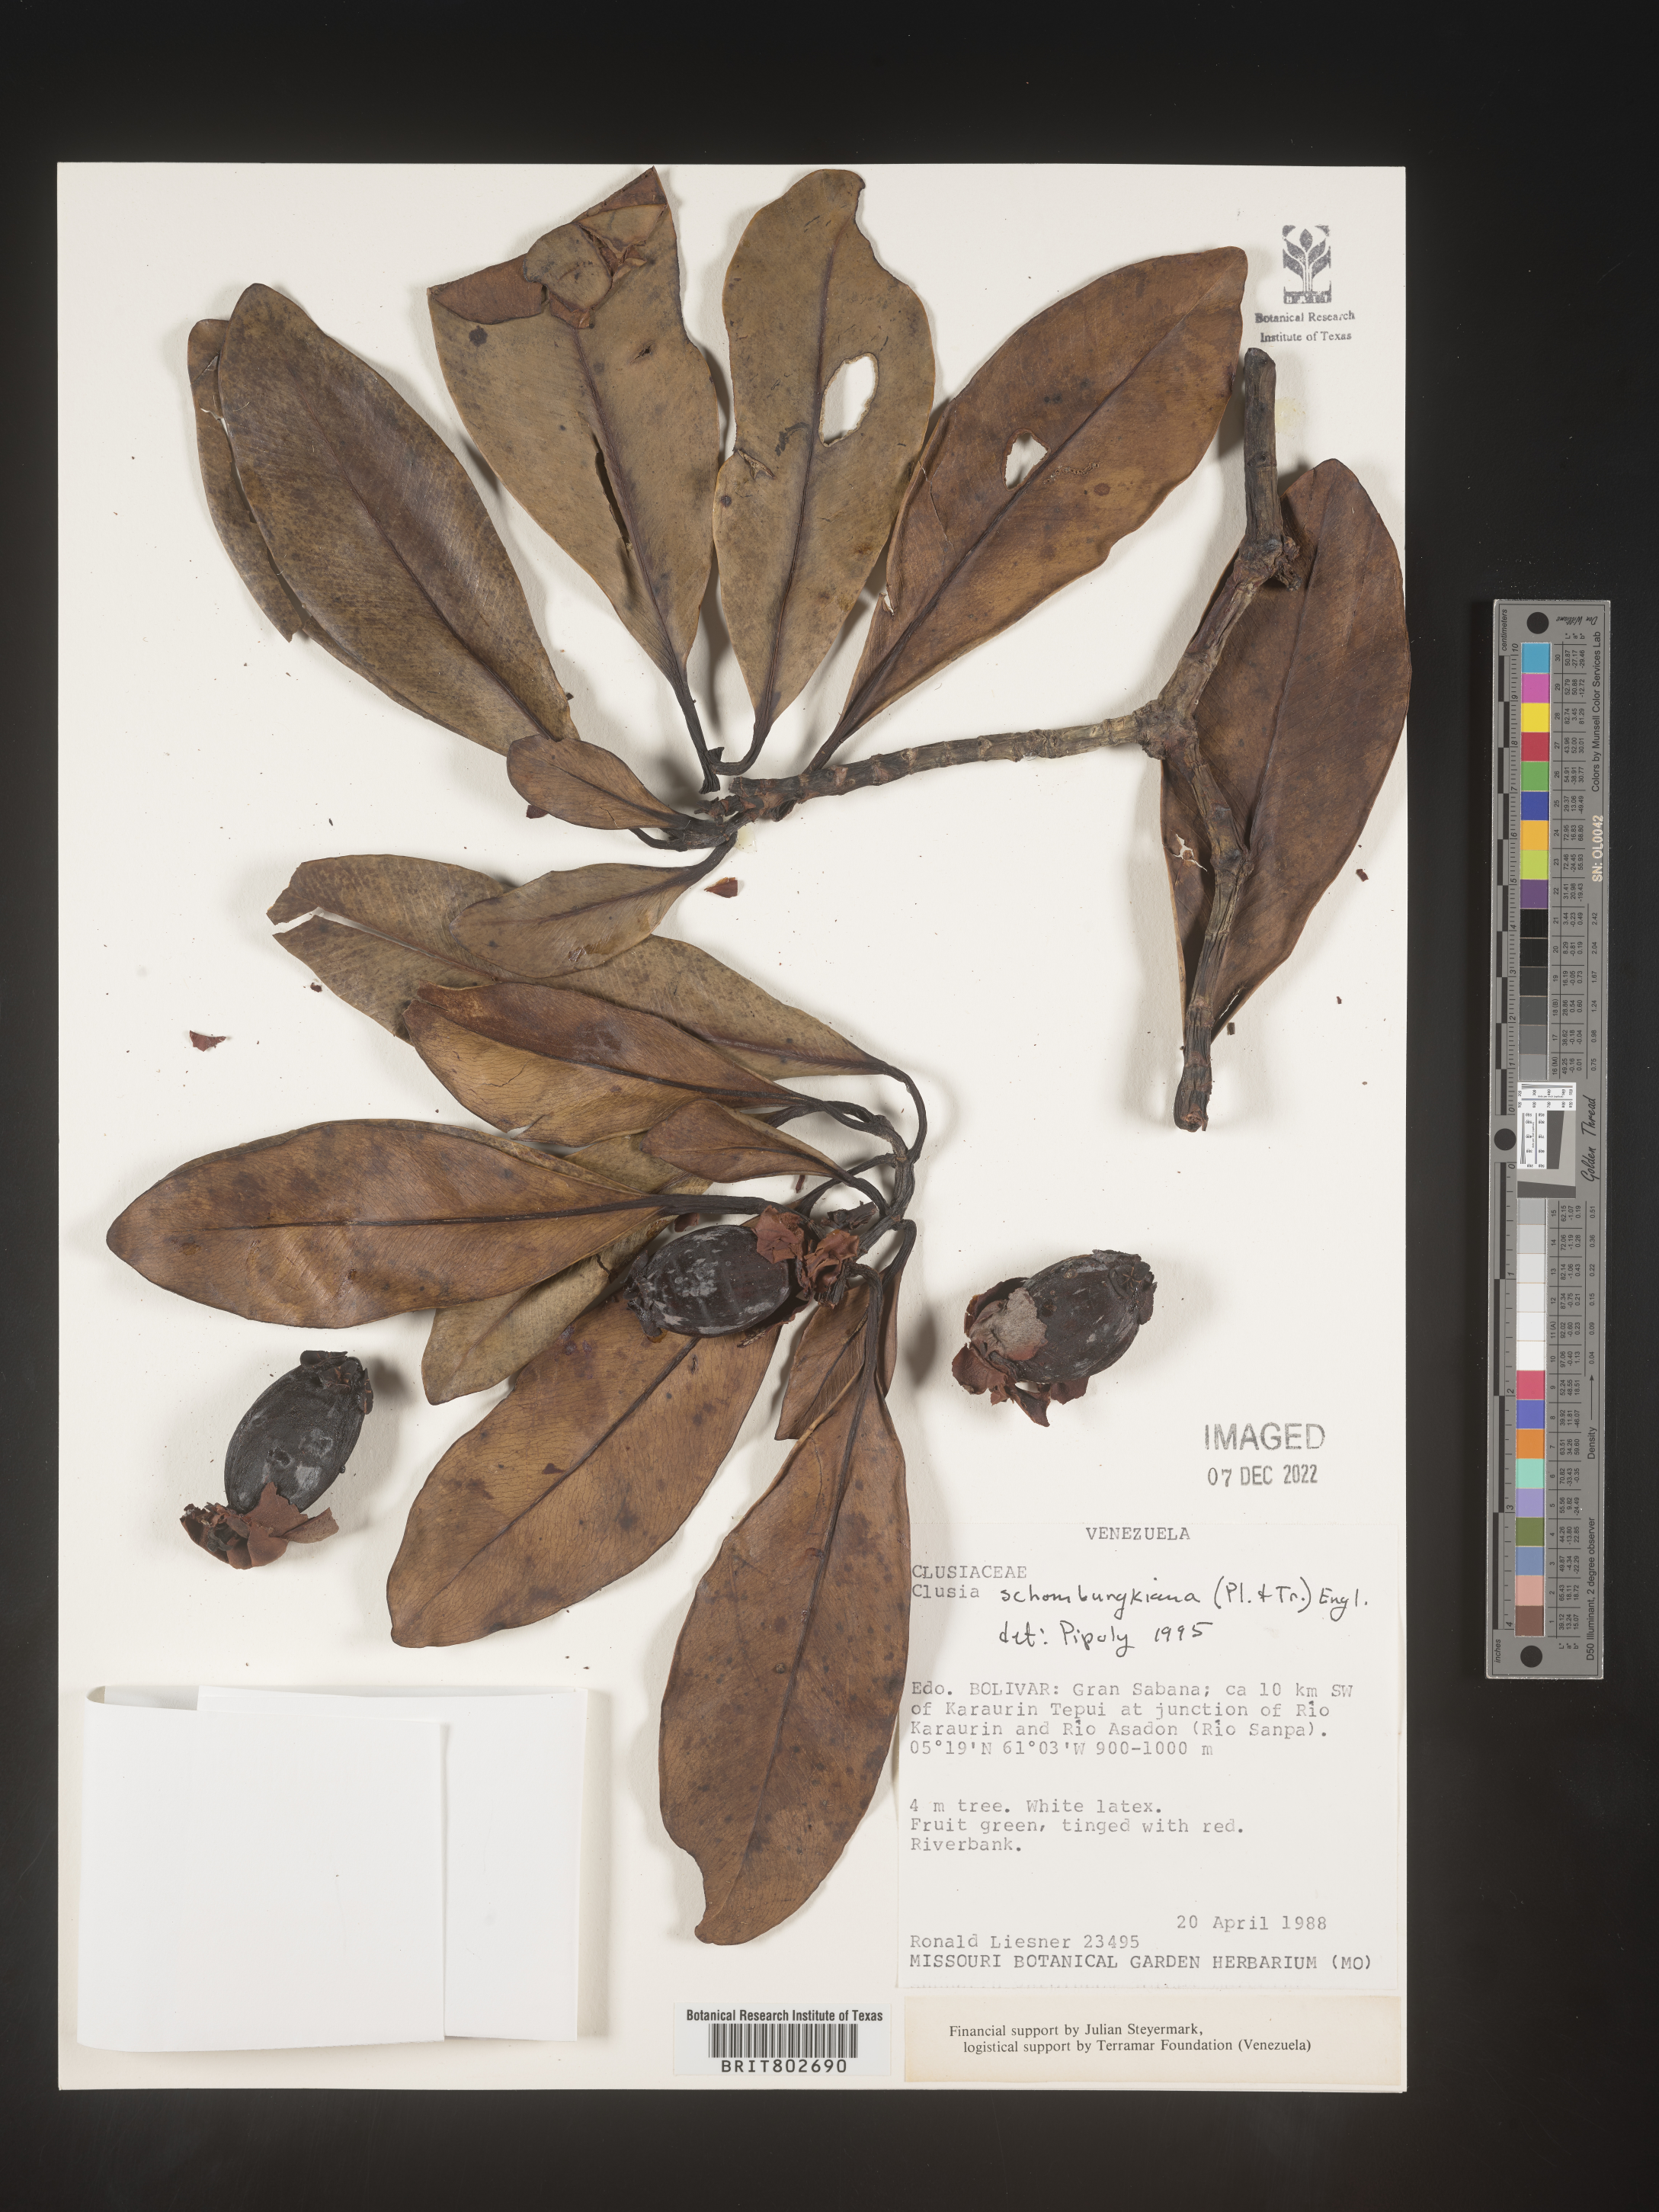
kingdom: Plantae
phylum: Tracheophyta
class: Magnoliopsida
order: Malpighiales
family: Clusiaceae
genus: Clusia
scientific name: Clusia schomburgkiana
